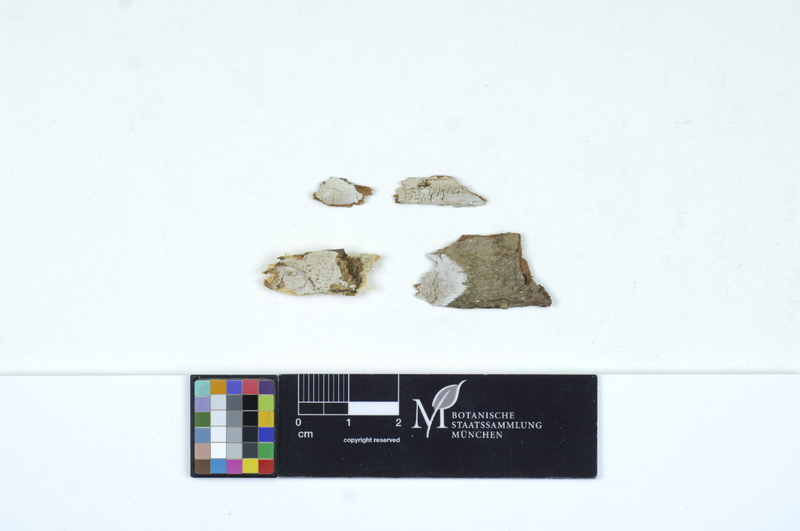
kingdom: Fungi
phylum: Basidiomycota
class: Agaricomycetes
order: Auriculariales
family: Auriculariaceae
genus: Alloexidiopsis
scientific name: Alloexidiopsis calcea
